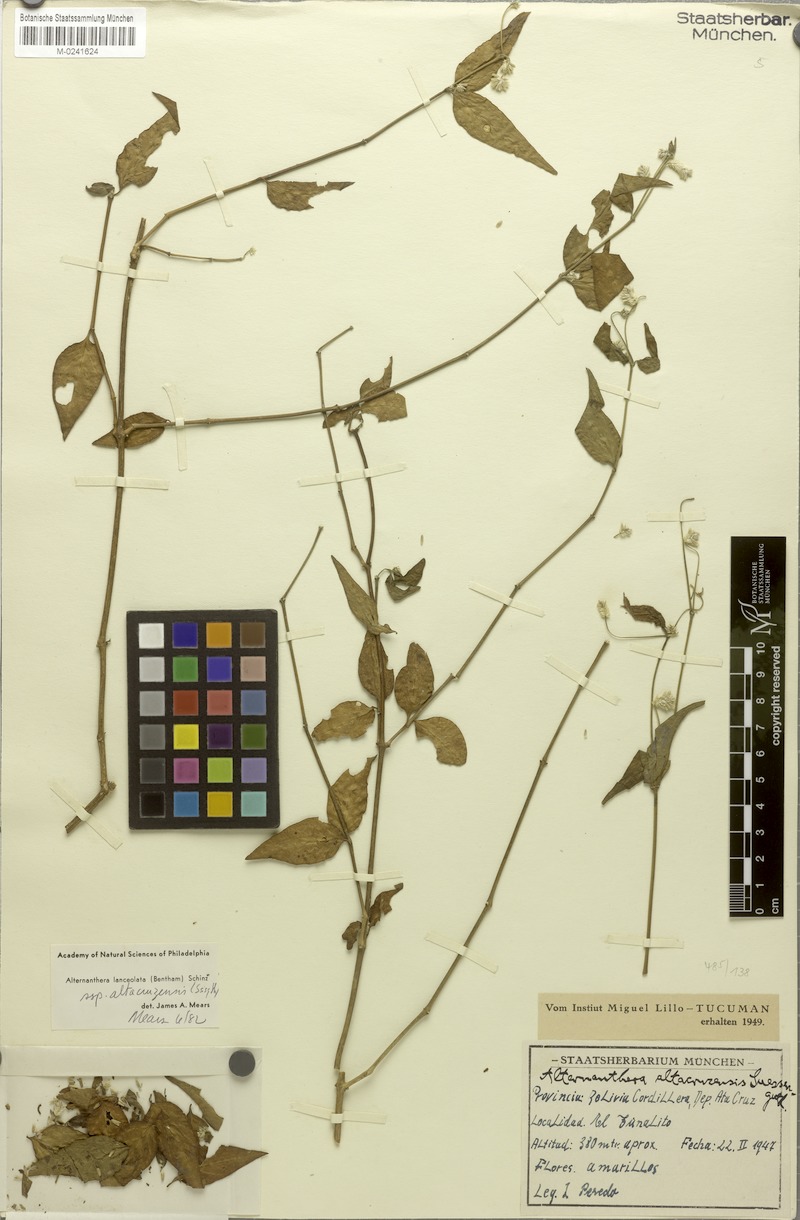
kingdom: Plantae
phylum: Tracheophyta
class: Magnoliopsida
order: Caryophyllales
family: Amaranthaceae
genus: Alternanthera
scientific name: Alternanthera altacruzensis
